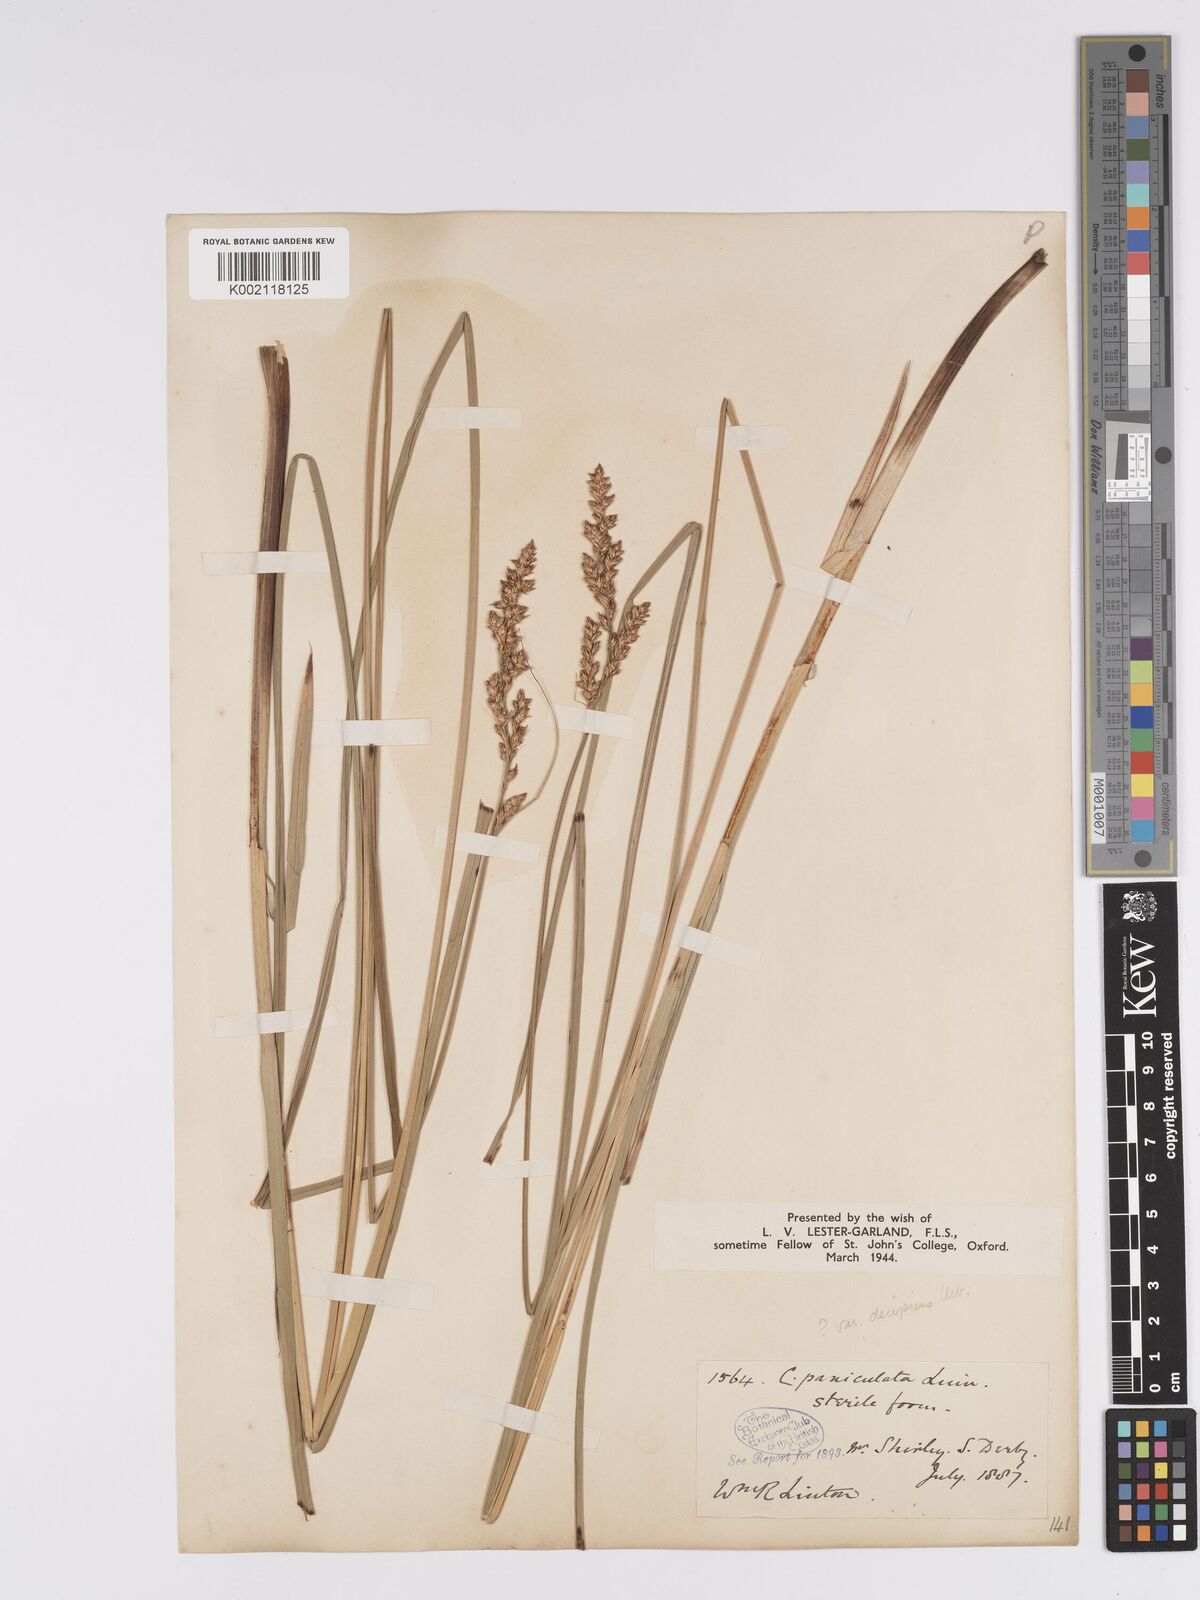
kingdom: Plantae
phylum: Tracheophyta
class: Liliopsida
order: Poales
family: Cyperaceae
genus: Carex
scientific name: Carex paniculata
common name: Greater tussock-sedge
